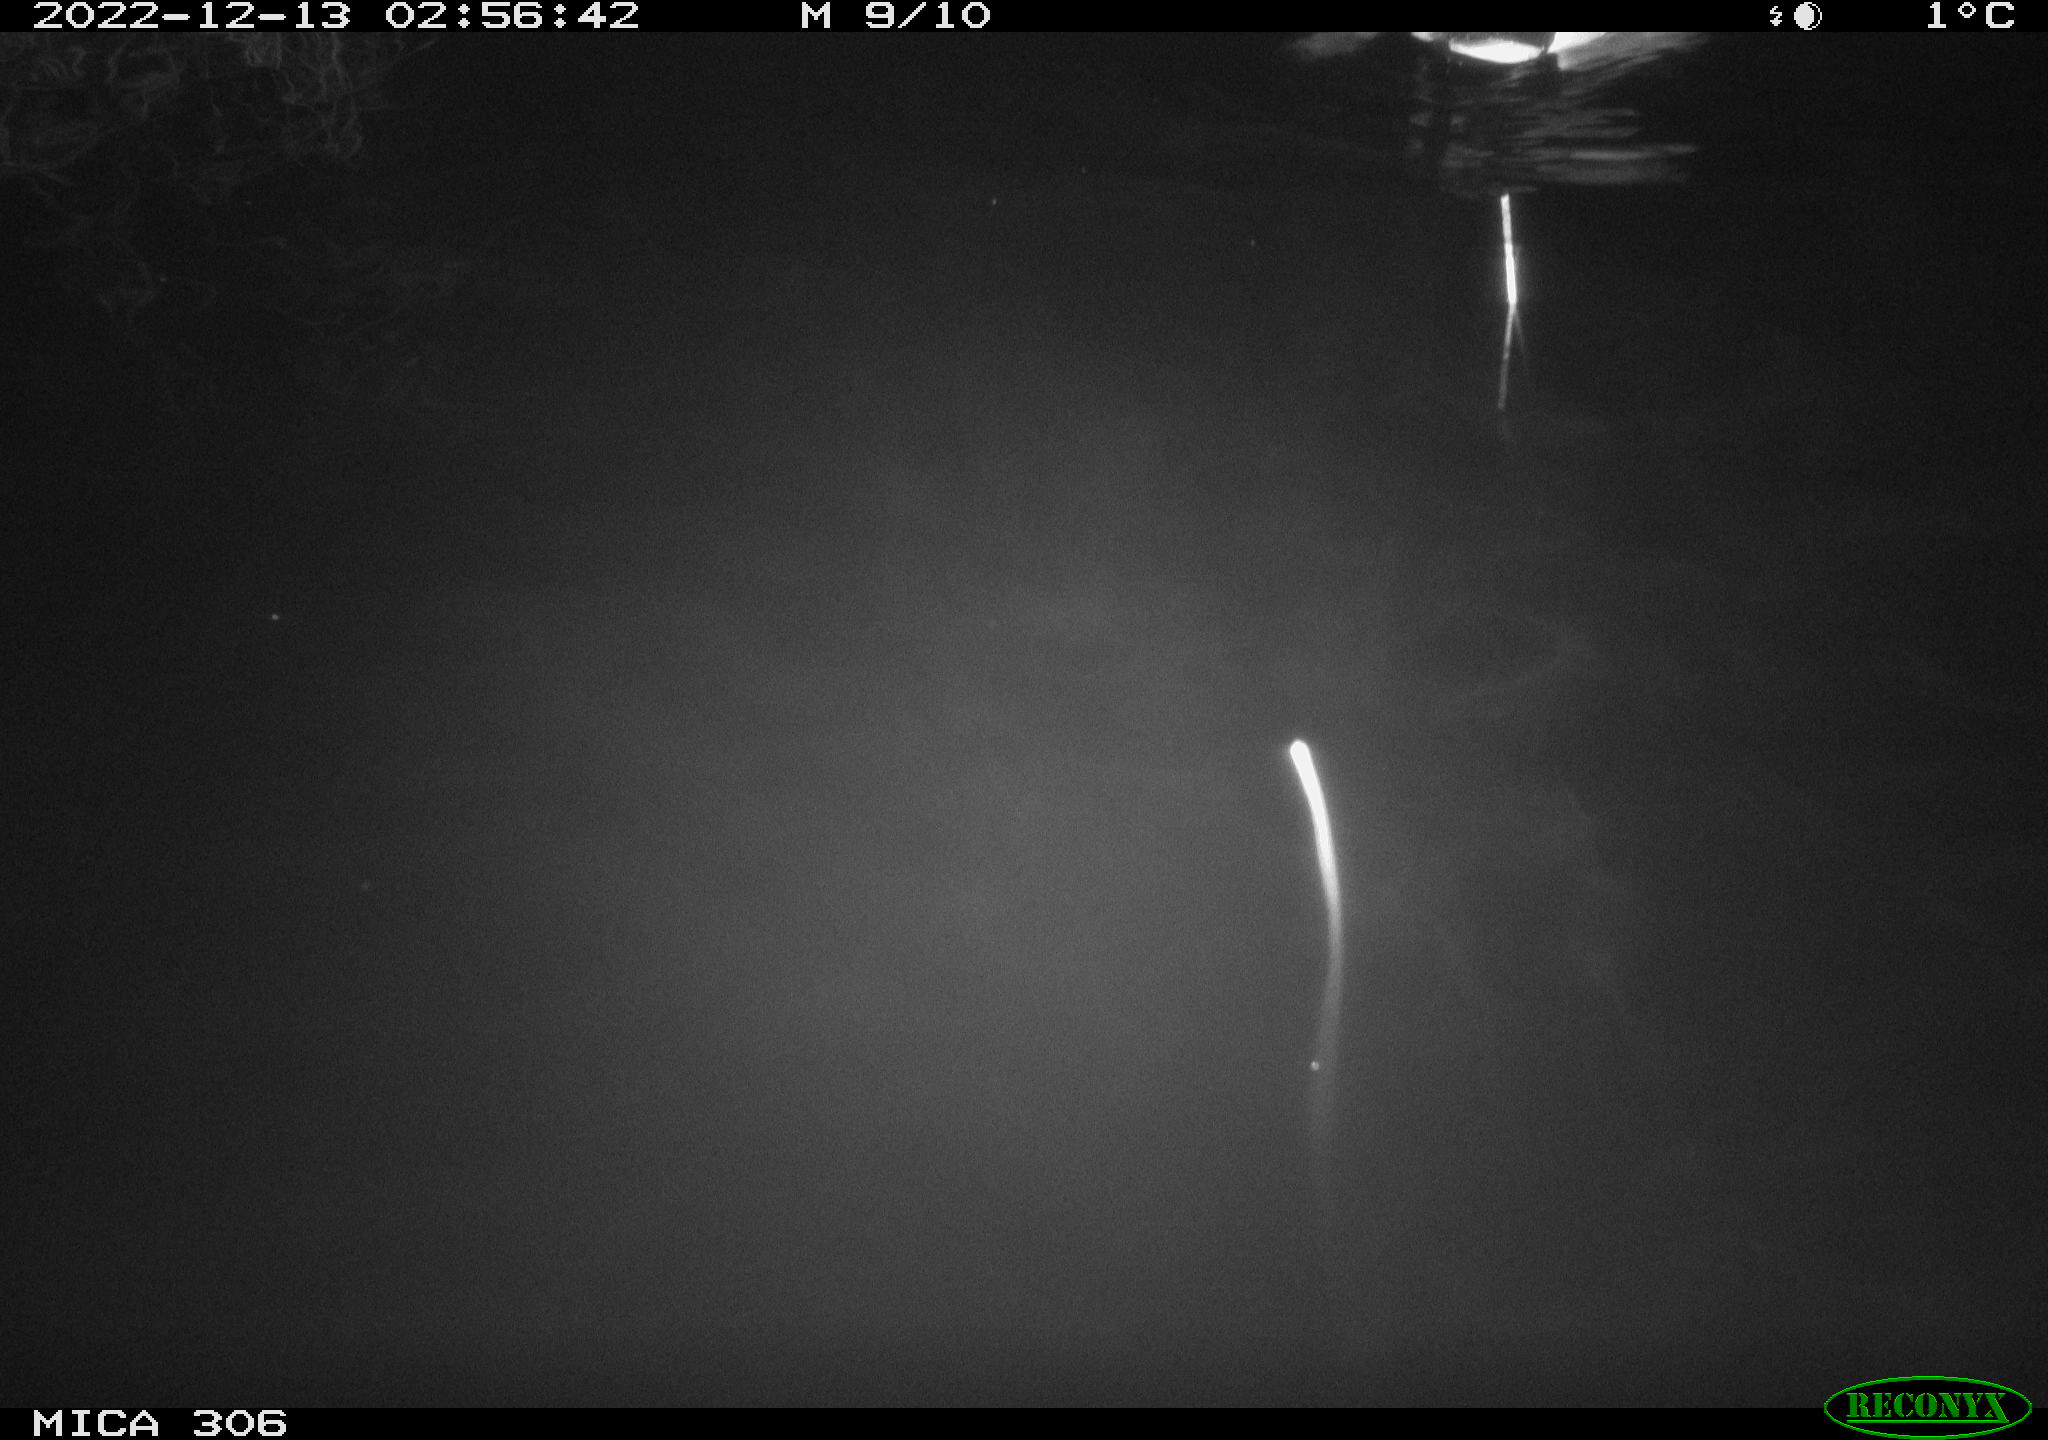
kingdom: Animalia
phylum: Chordata
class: Aves
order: Anseriformes
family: Anatidae
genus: Anas
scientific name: Anas
